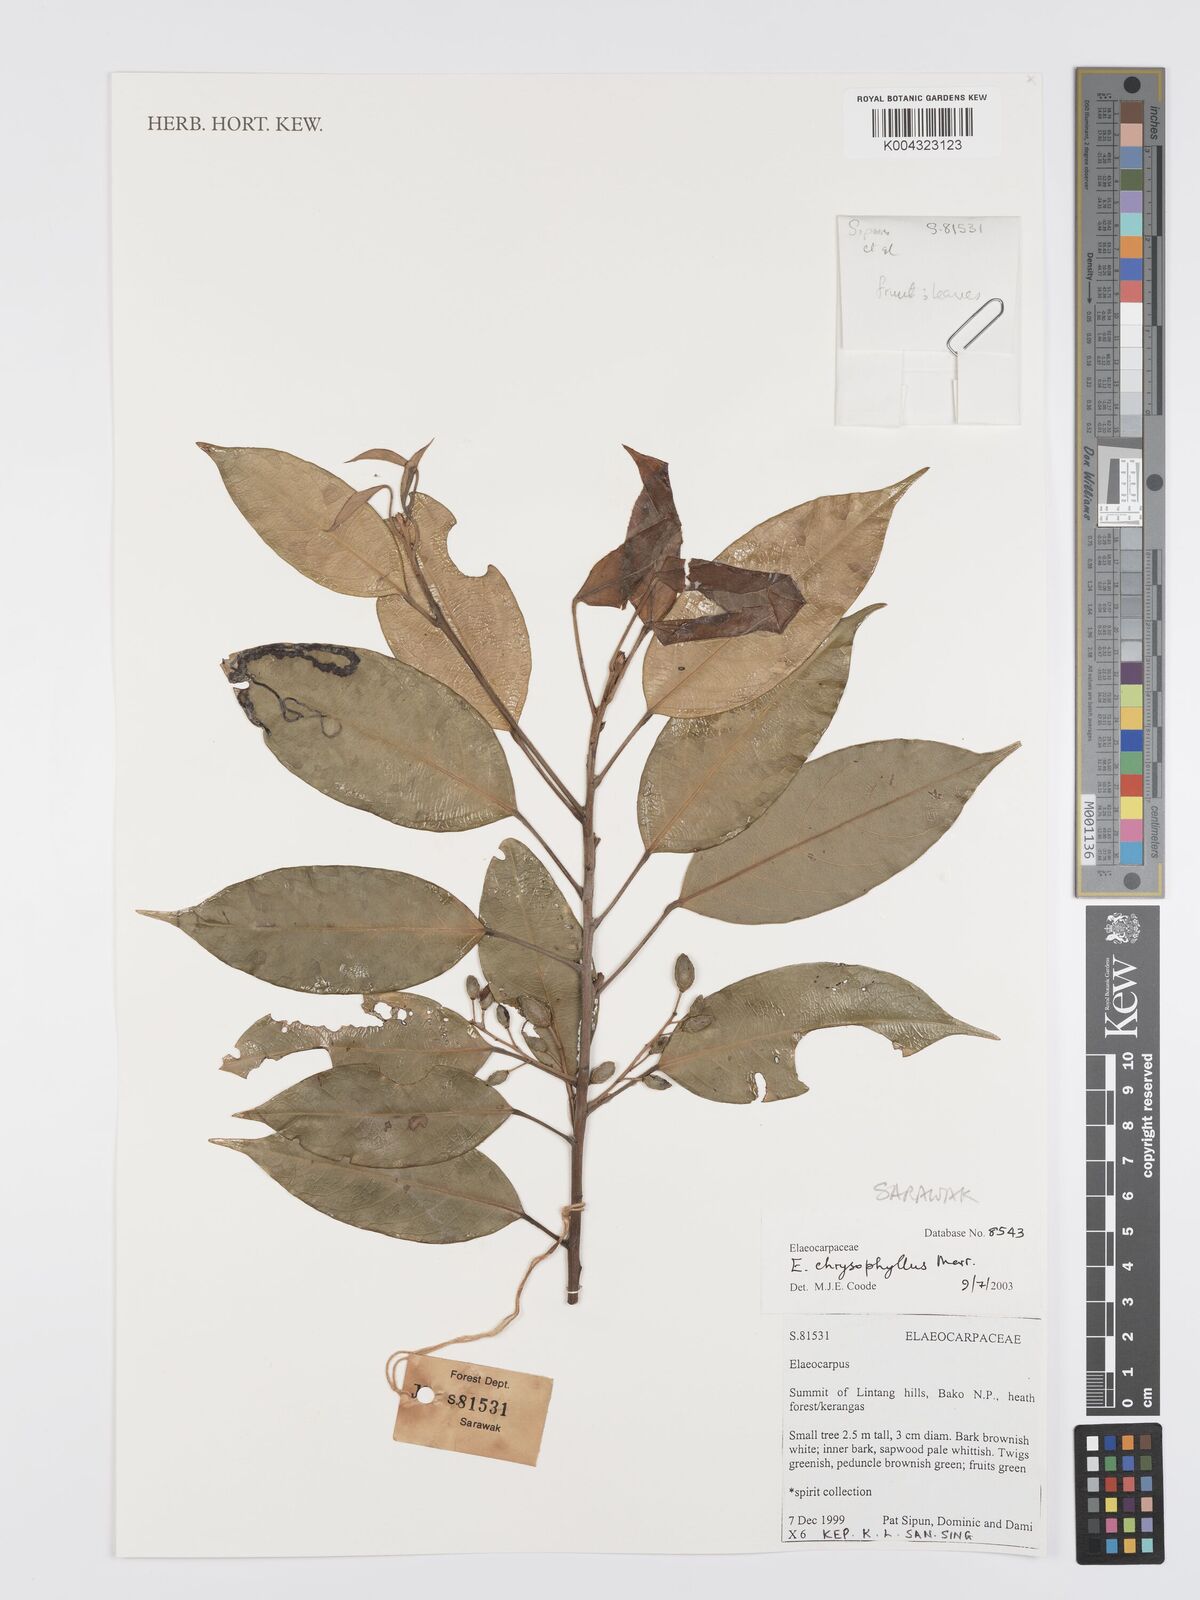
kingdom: Plantae
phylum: Tracheophyta
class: Magnoliopsida
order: Oxalidales
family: Elaeocarpaceae
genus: Elaeocarpus
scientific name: Elaeocarpus chrysophyllus
